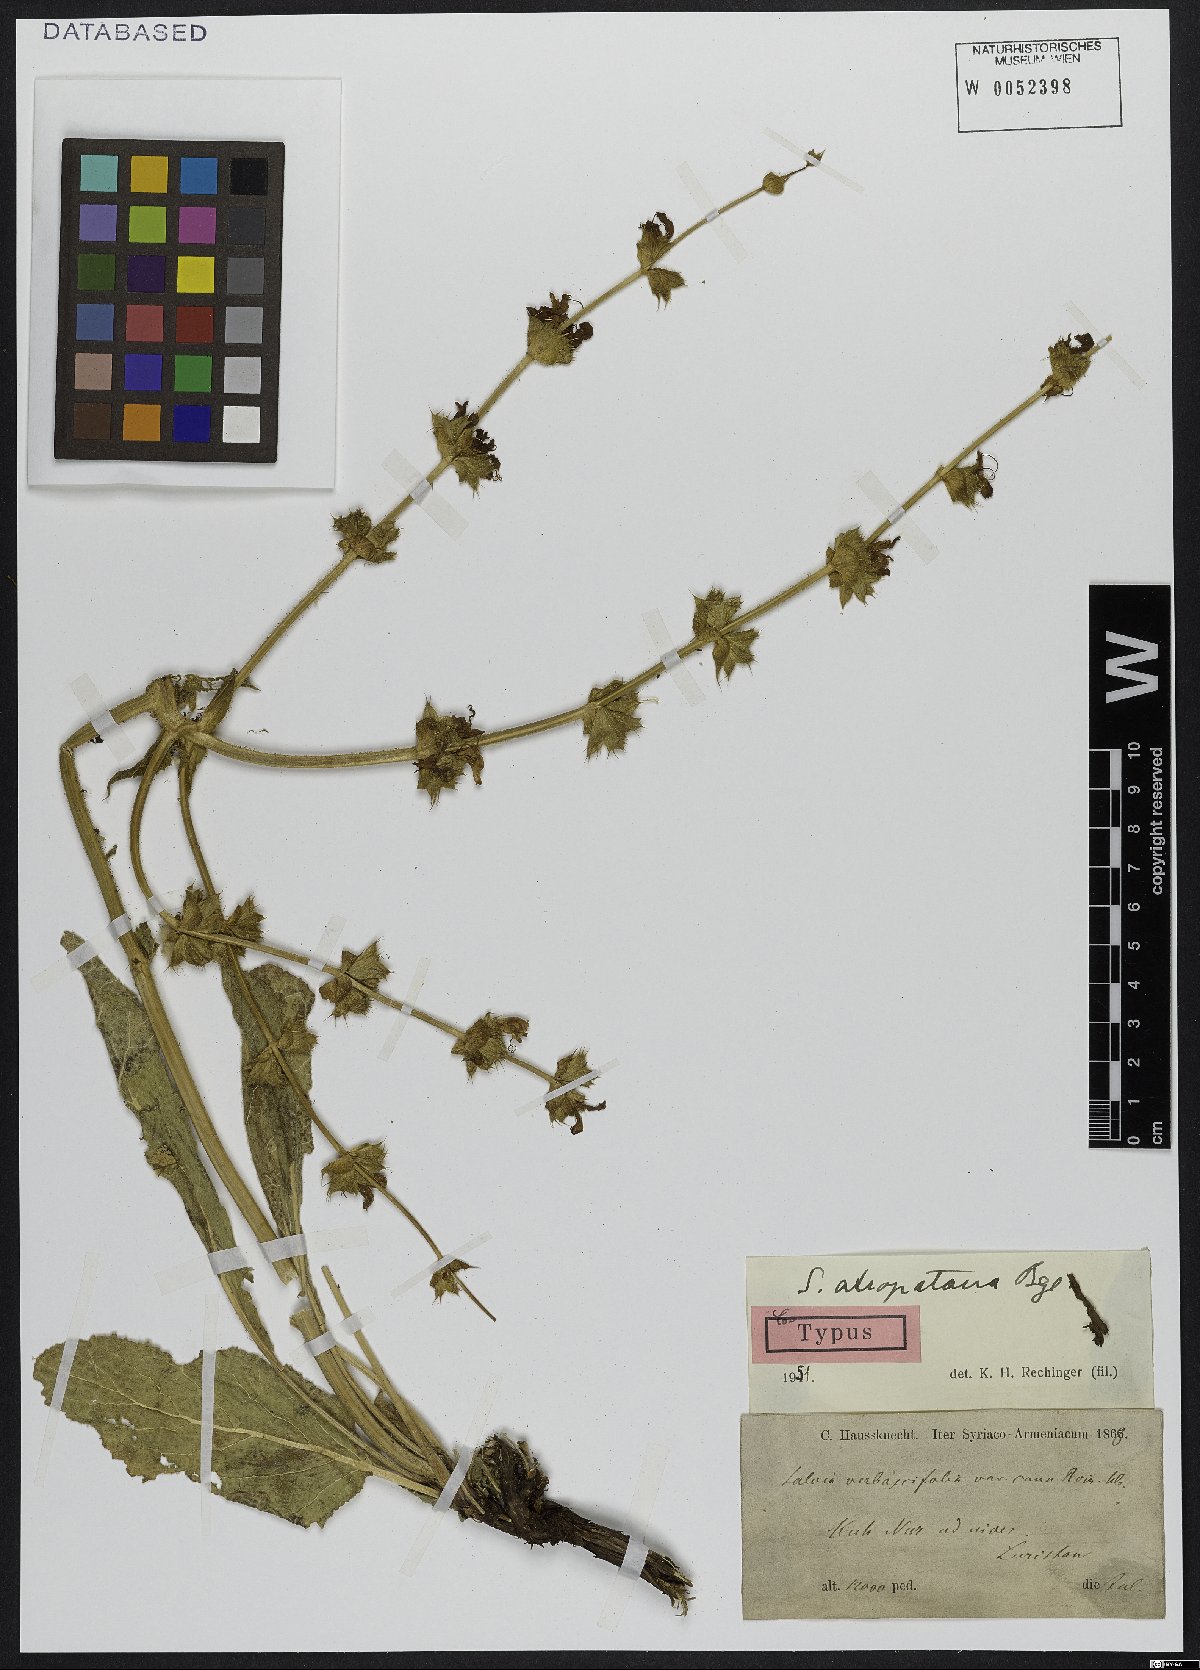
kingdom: Plantae
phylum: Tracheophyta
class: Magnoliopsida
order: Lamiales
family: Lamiaceae
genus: Salvia
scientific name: Salvia atropatana
